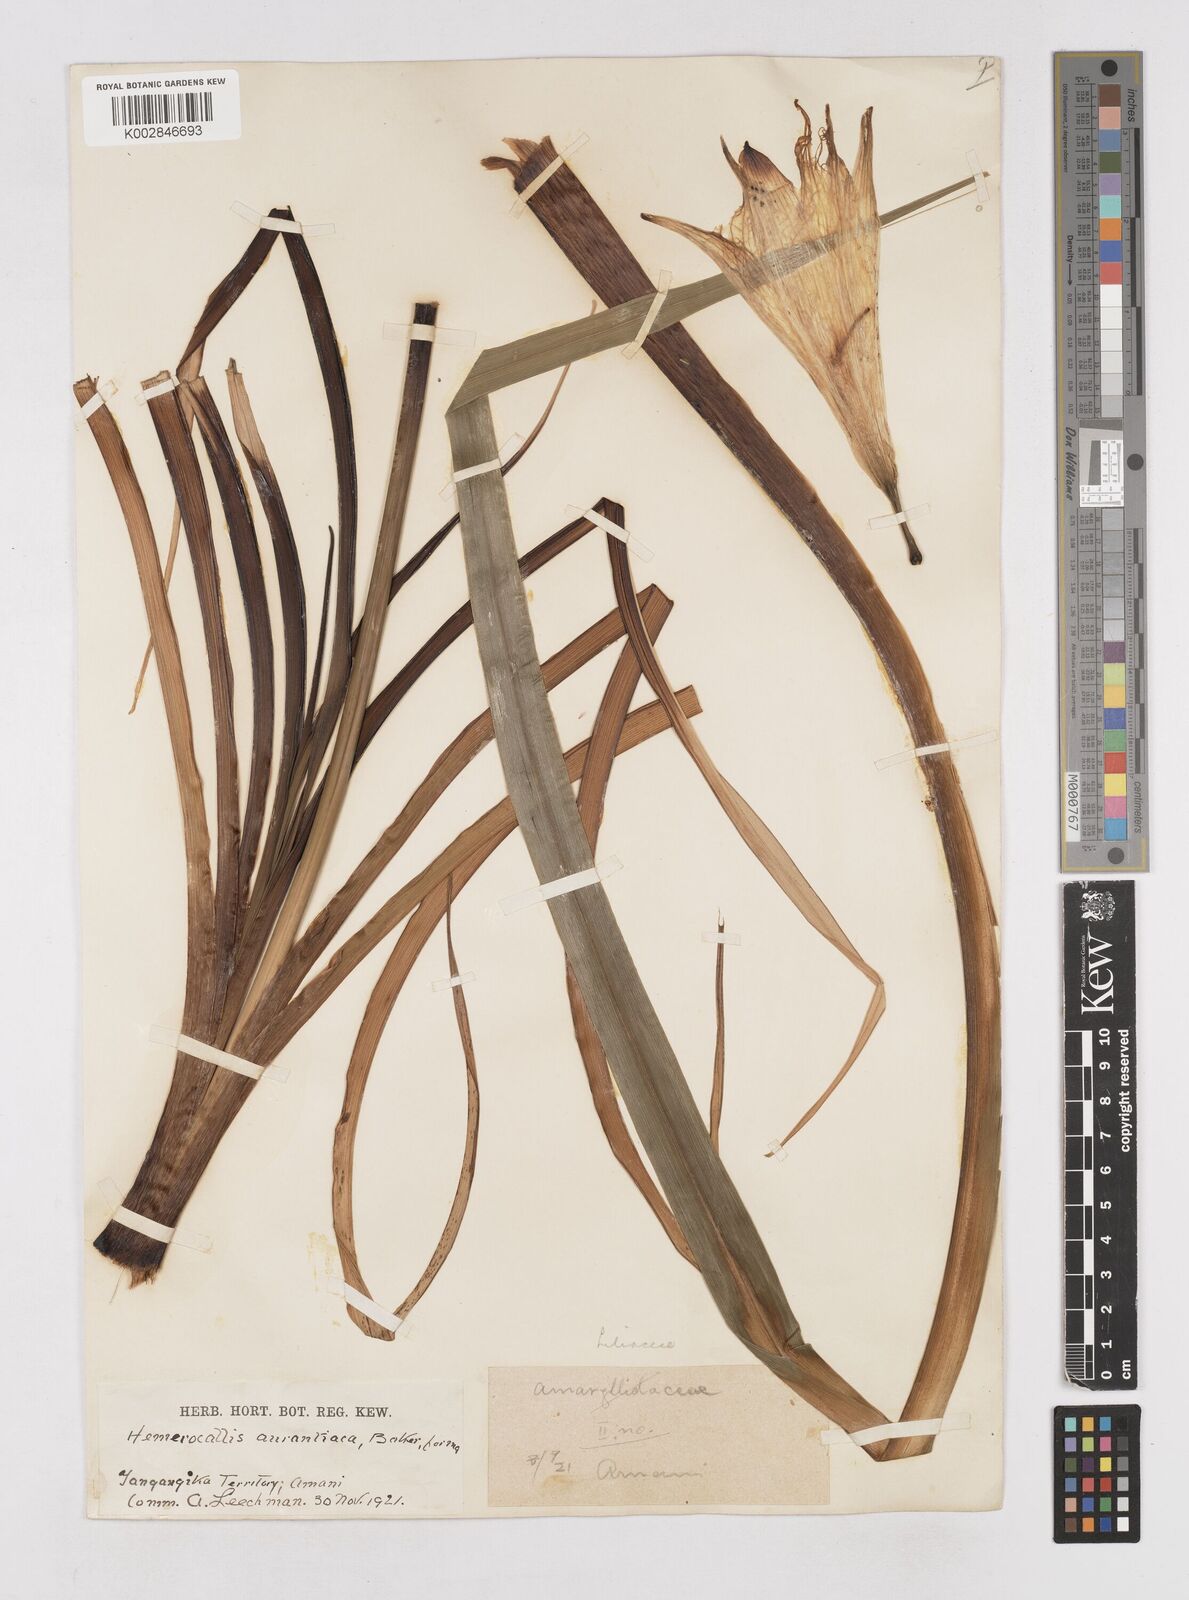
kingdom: Plantae
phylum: Tracheophyta
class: Liliopsida
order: Asparagales
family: Asphodelaceae
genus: Hemerocallis
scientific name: Hemerocallis fulva
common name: Orange day-lily
